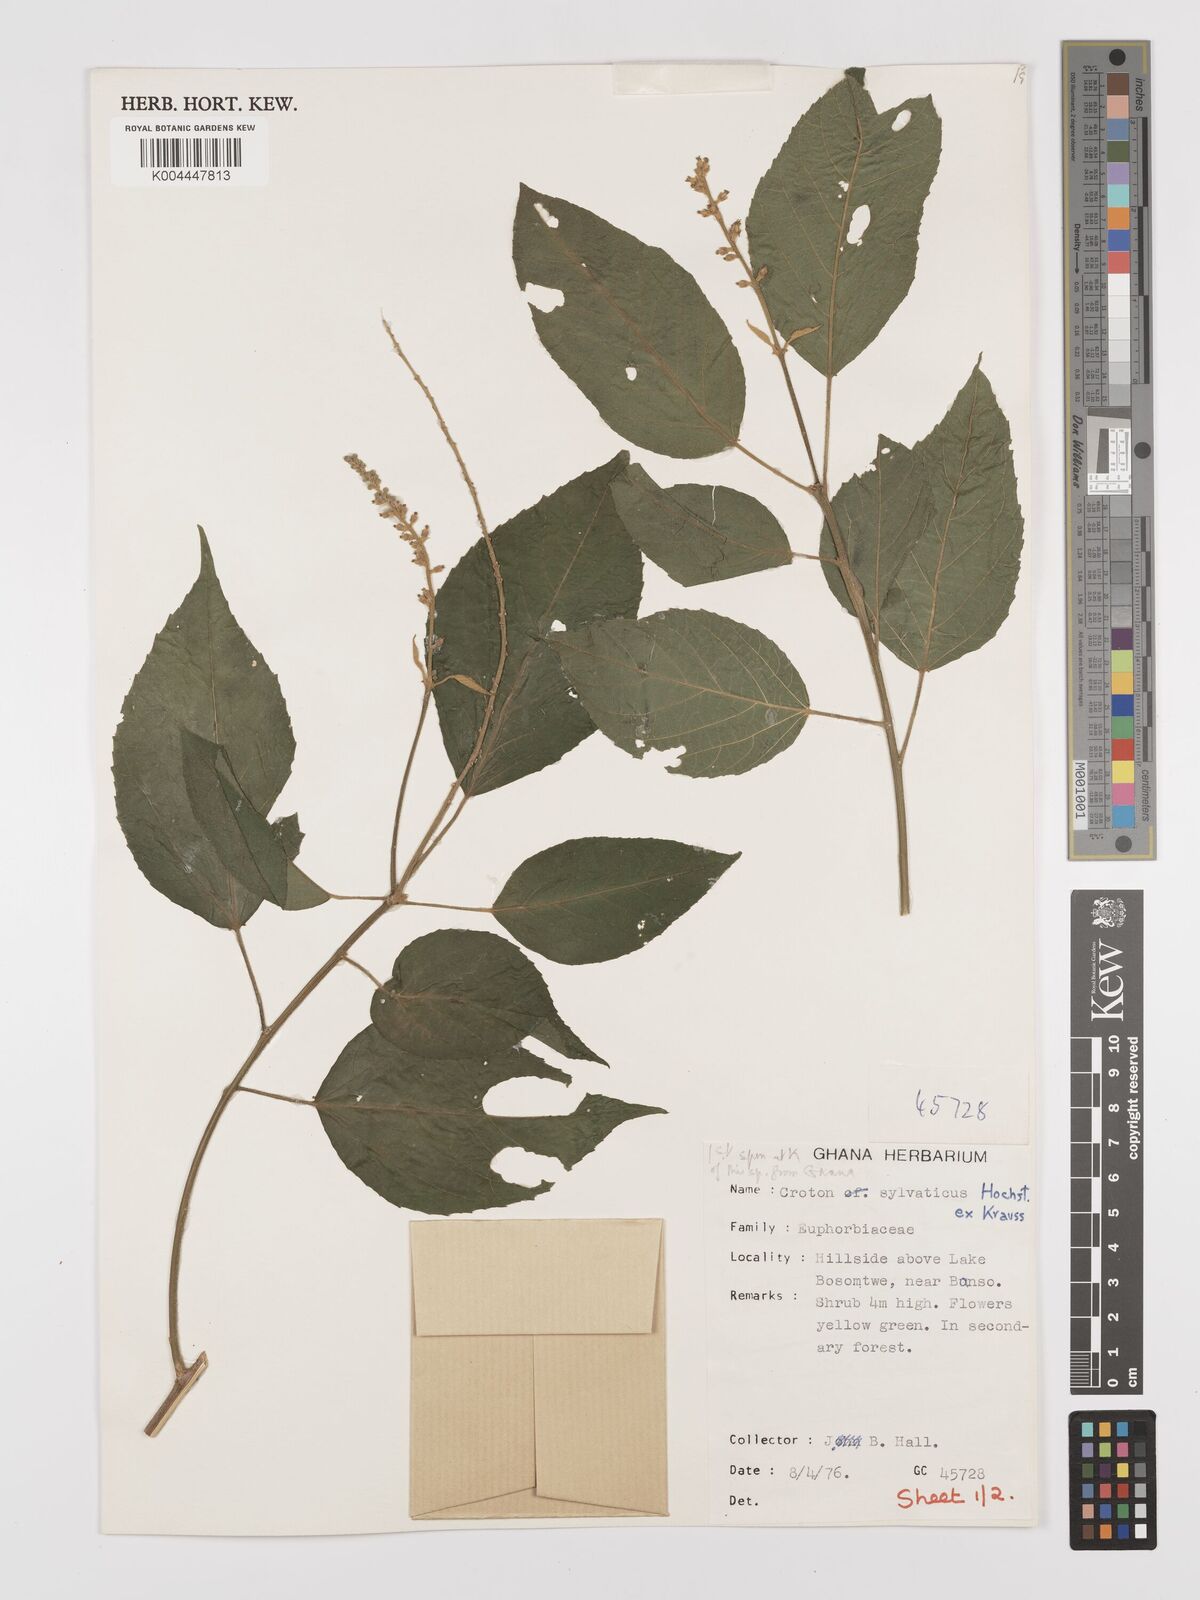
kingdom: Plantae
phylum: Tracheophyta
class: Magnoliopsida
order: Malpighiales
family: Euphorbiaceae
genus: Croton
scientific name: Croton
